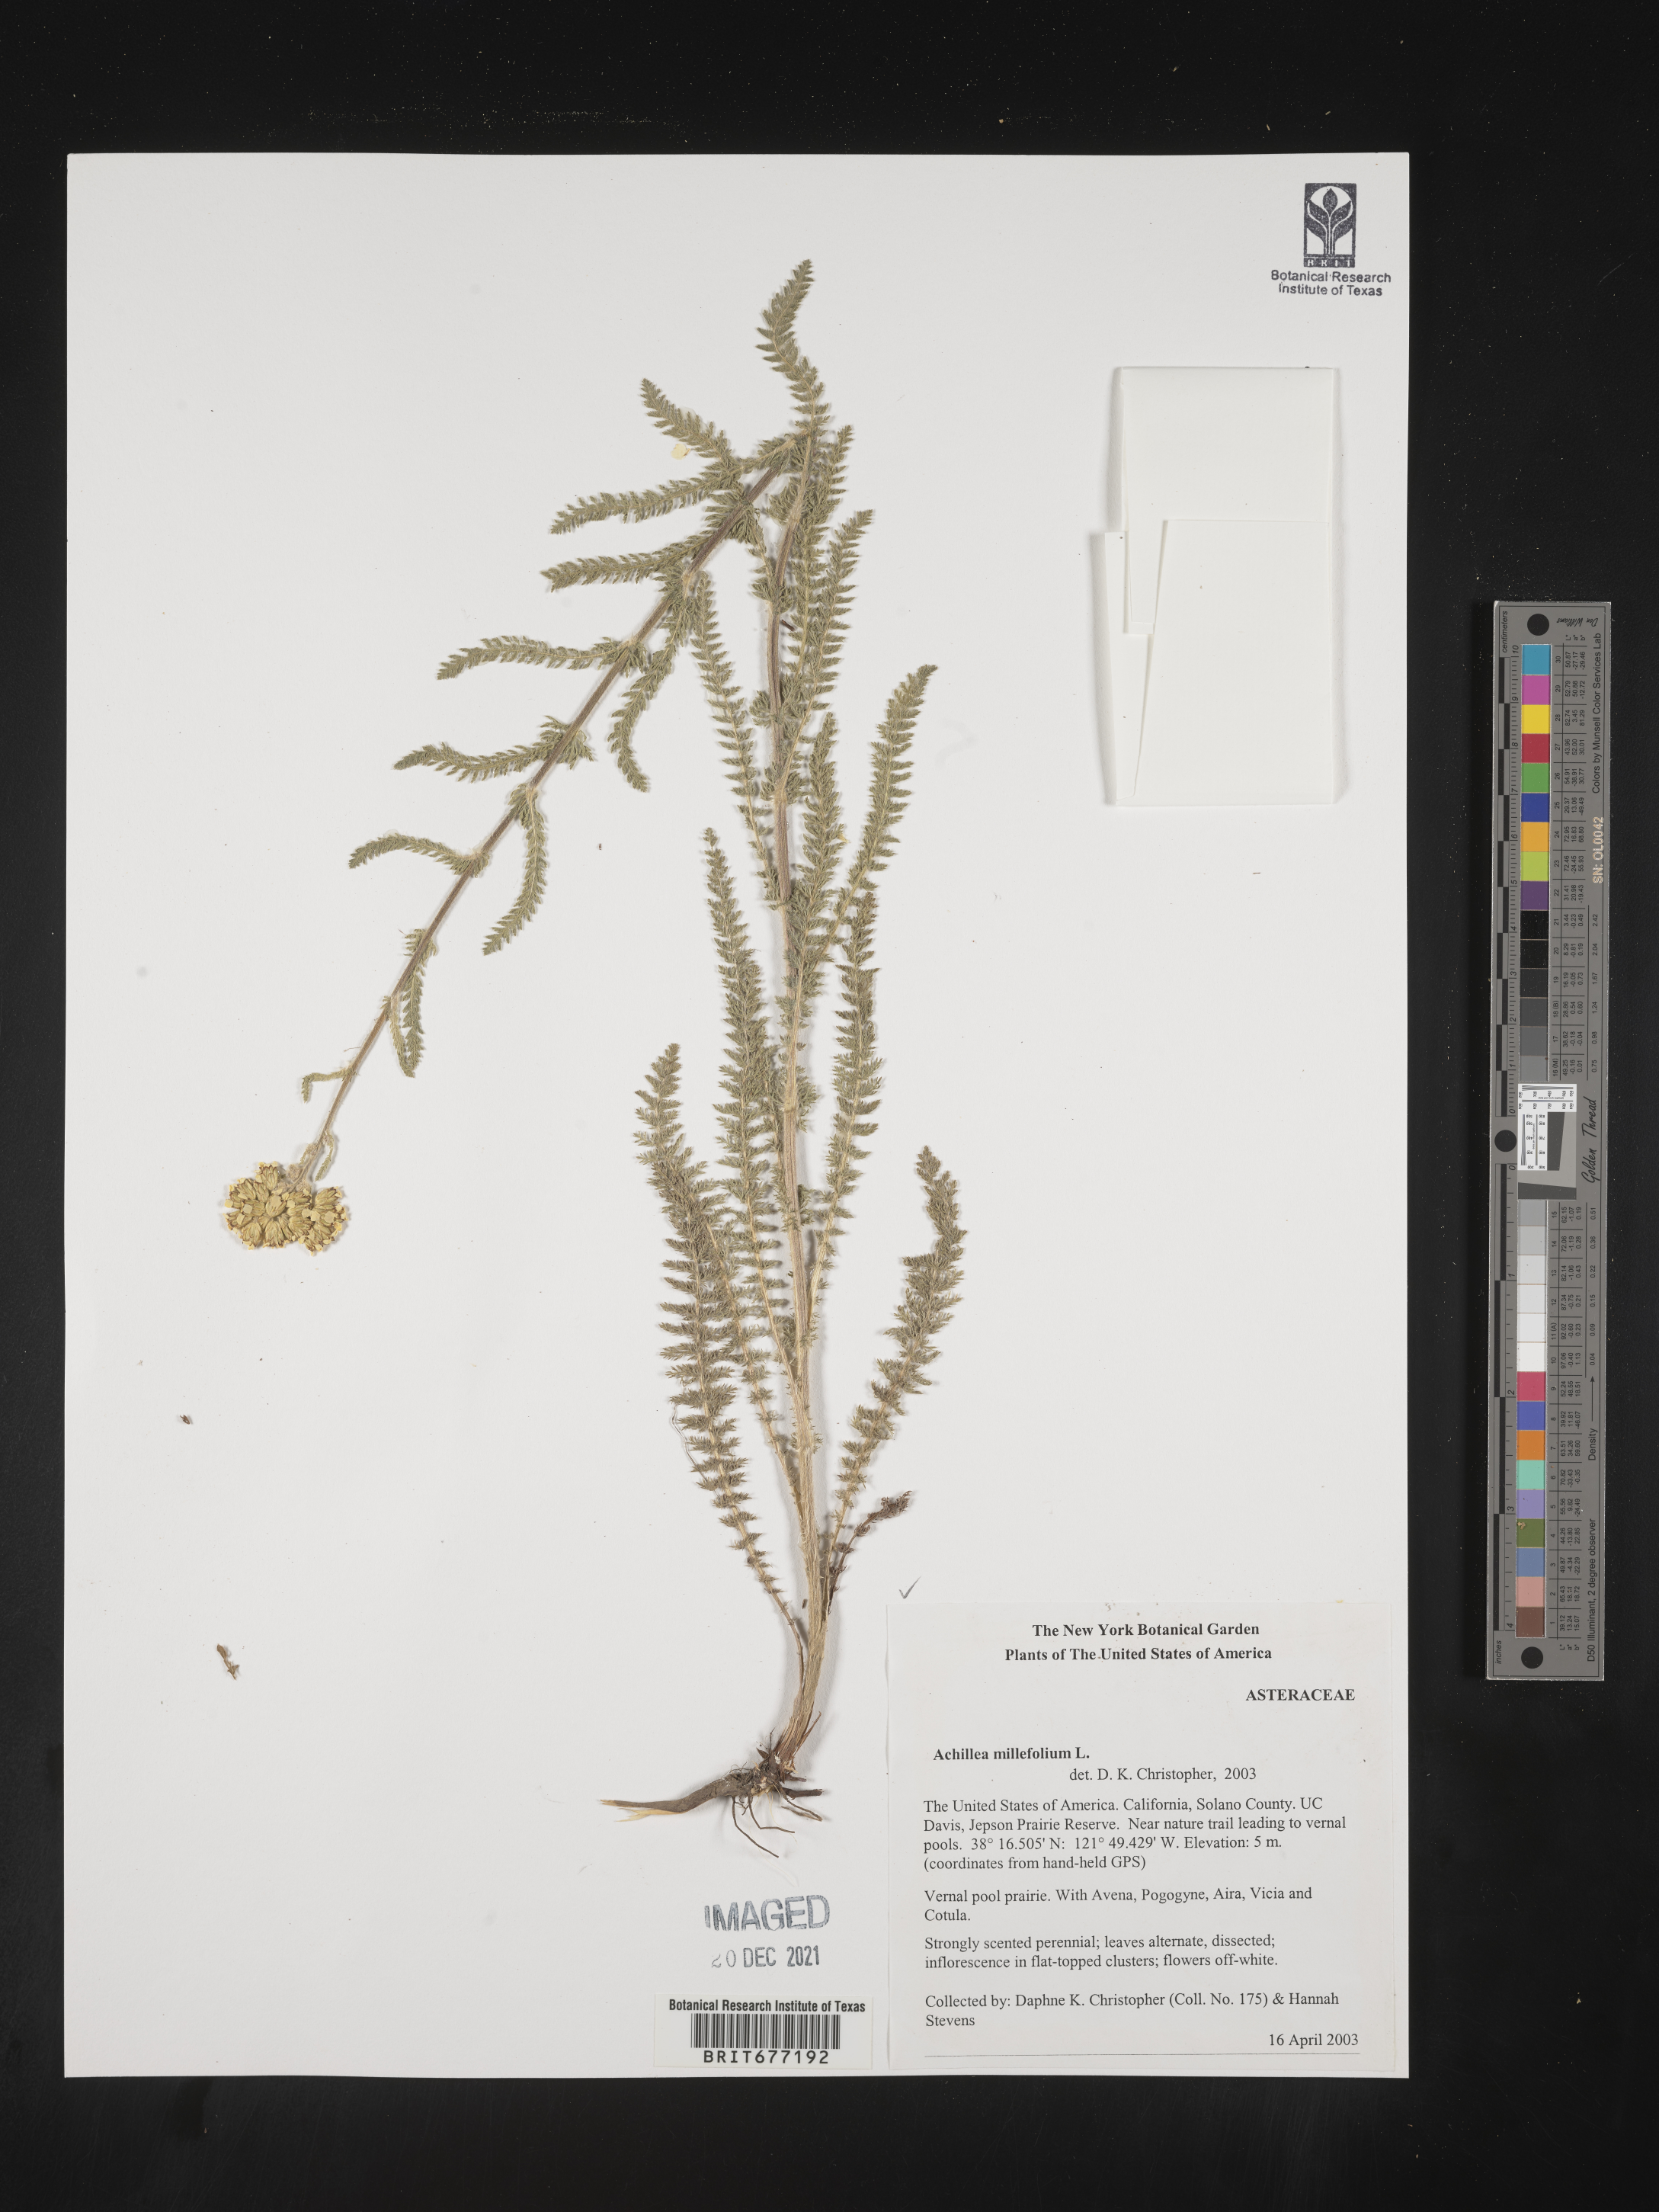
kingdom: Plantae
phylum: Tracheophyta
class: Magnoliopsida
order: Asterales
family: Asteraceae
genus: Achillea
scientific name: Achillea millefolium
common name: Yarrow
